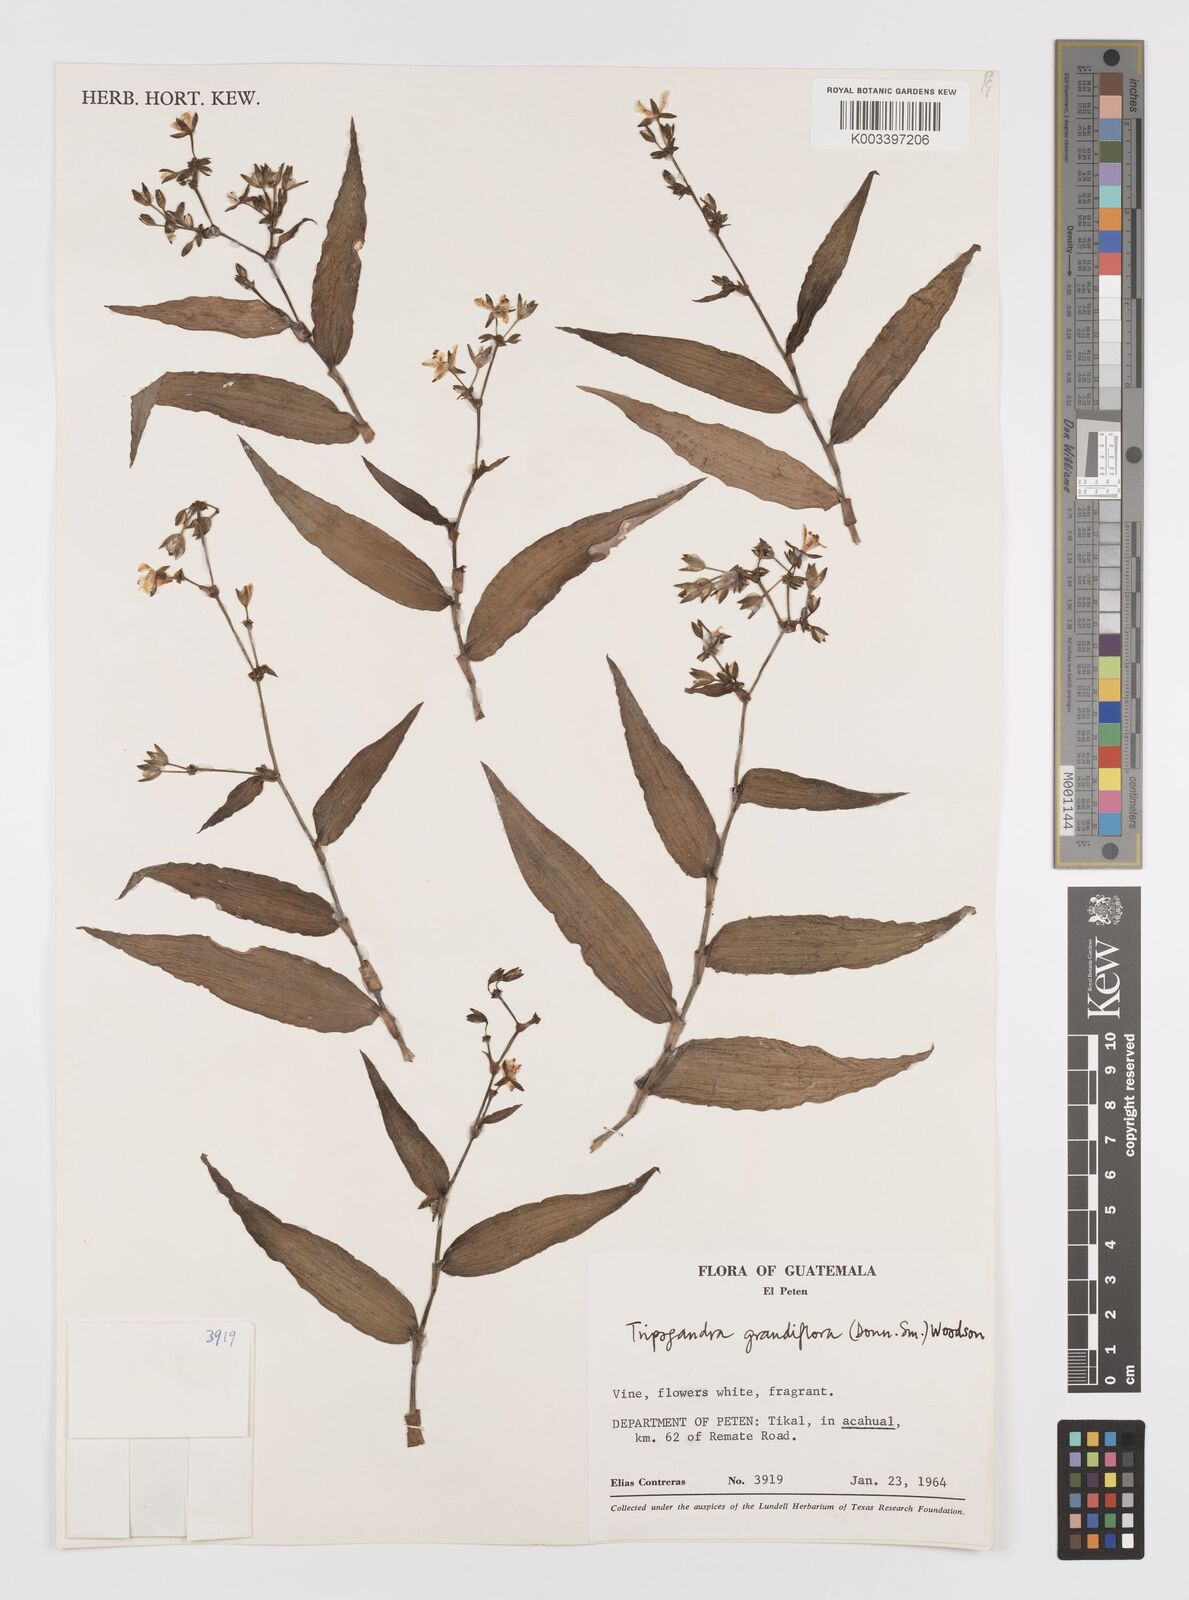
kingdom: Plantae
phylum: Tracheophyta
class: Liliopsida
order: Commelinales
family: Commelinaceae
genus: Callisia
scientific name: Callisia grandiflora
